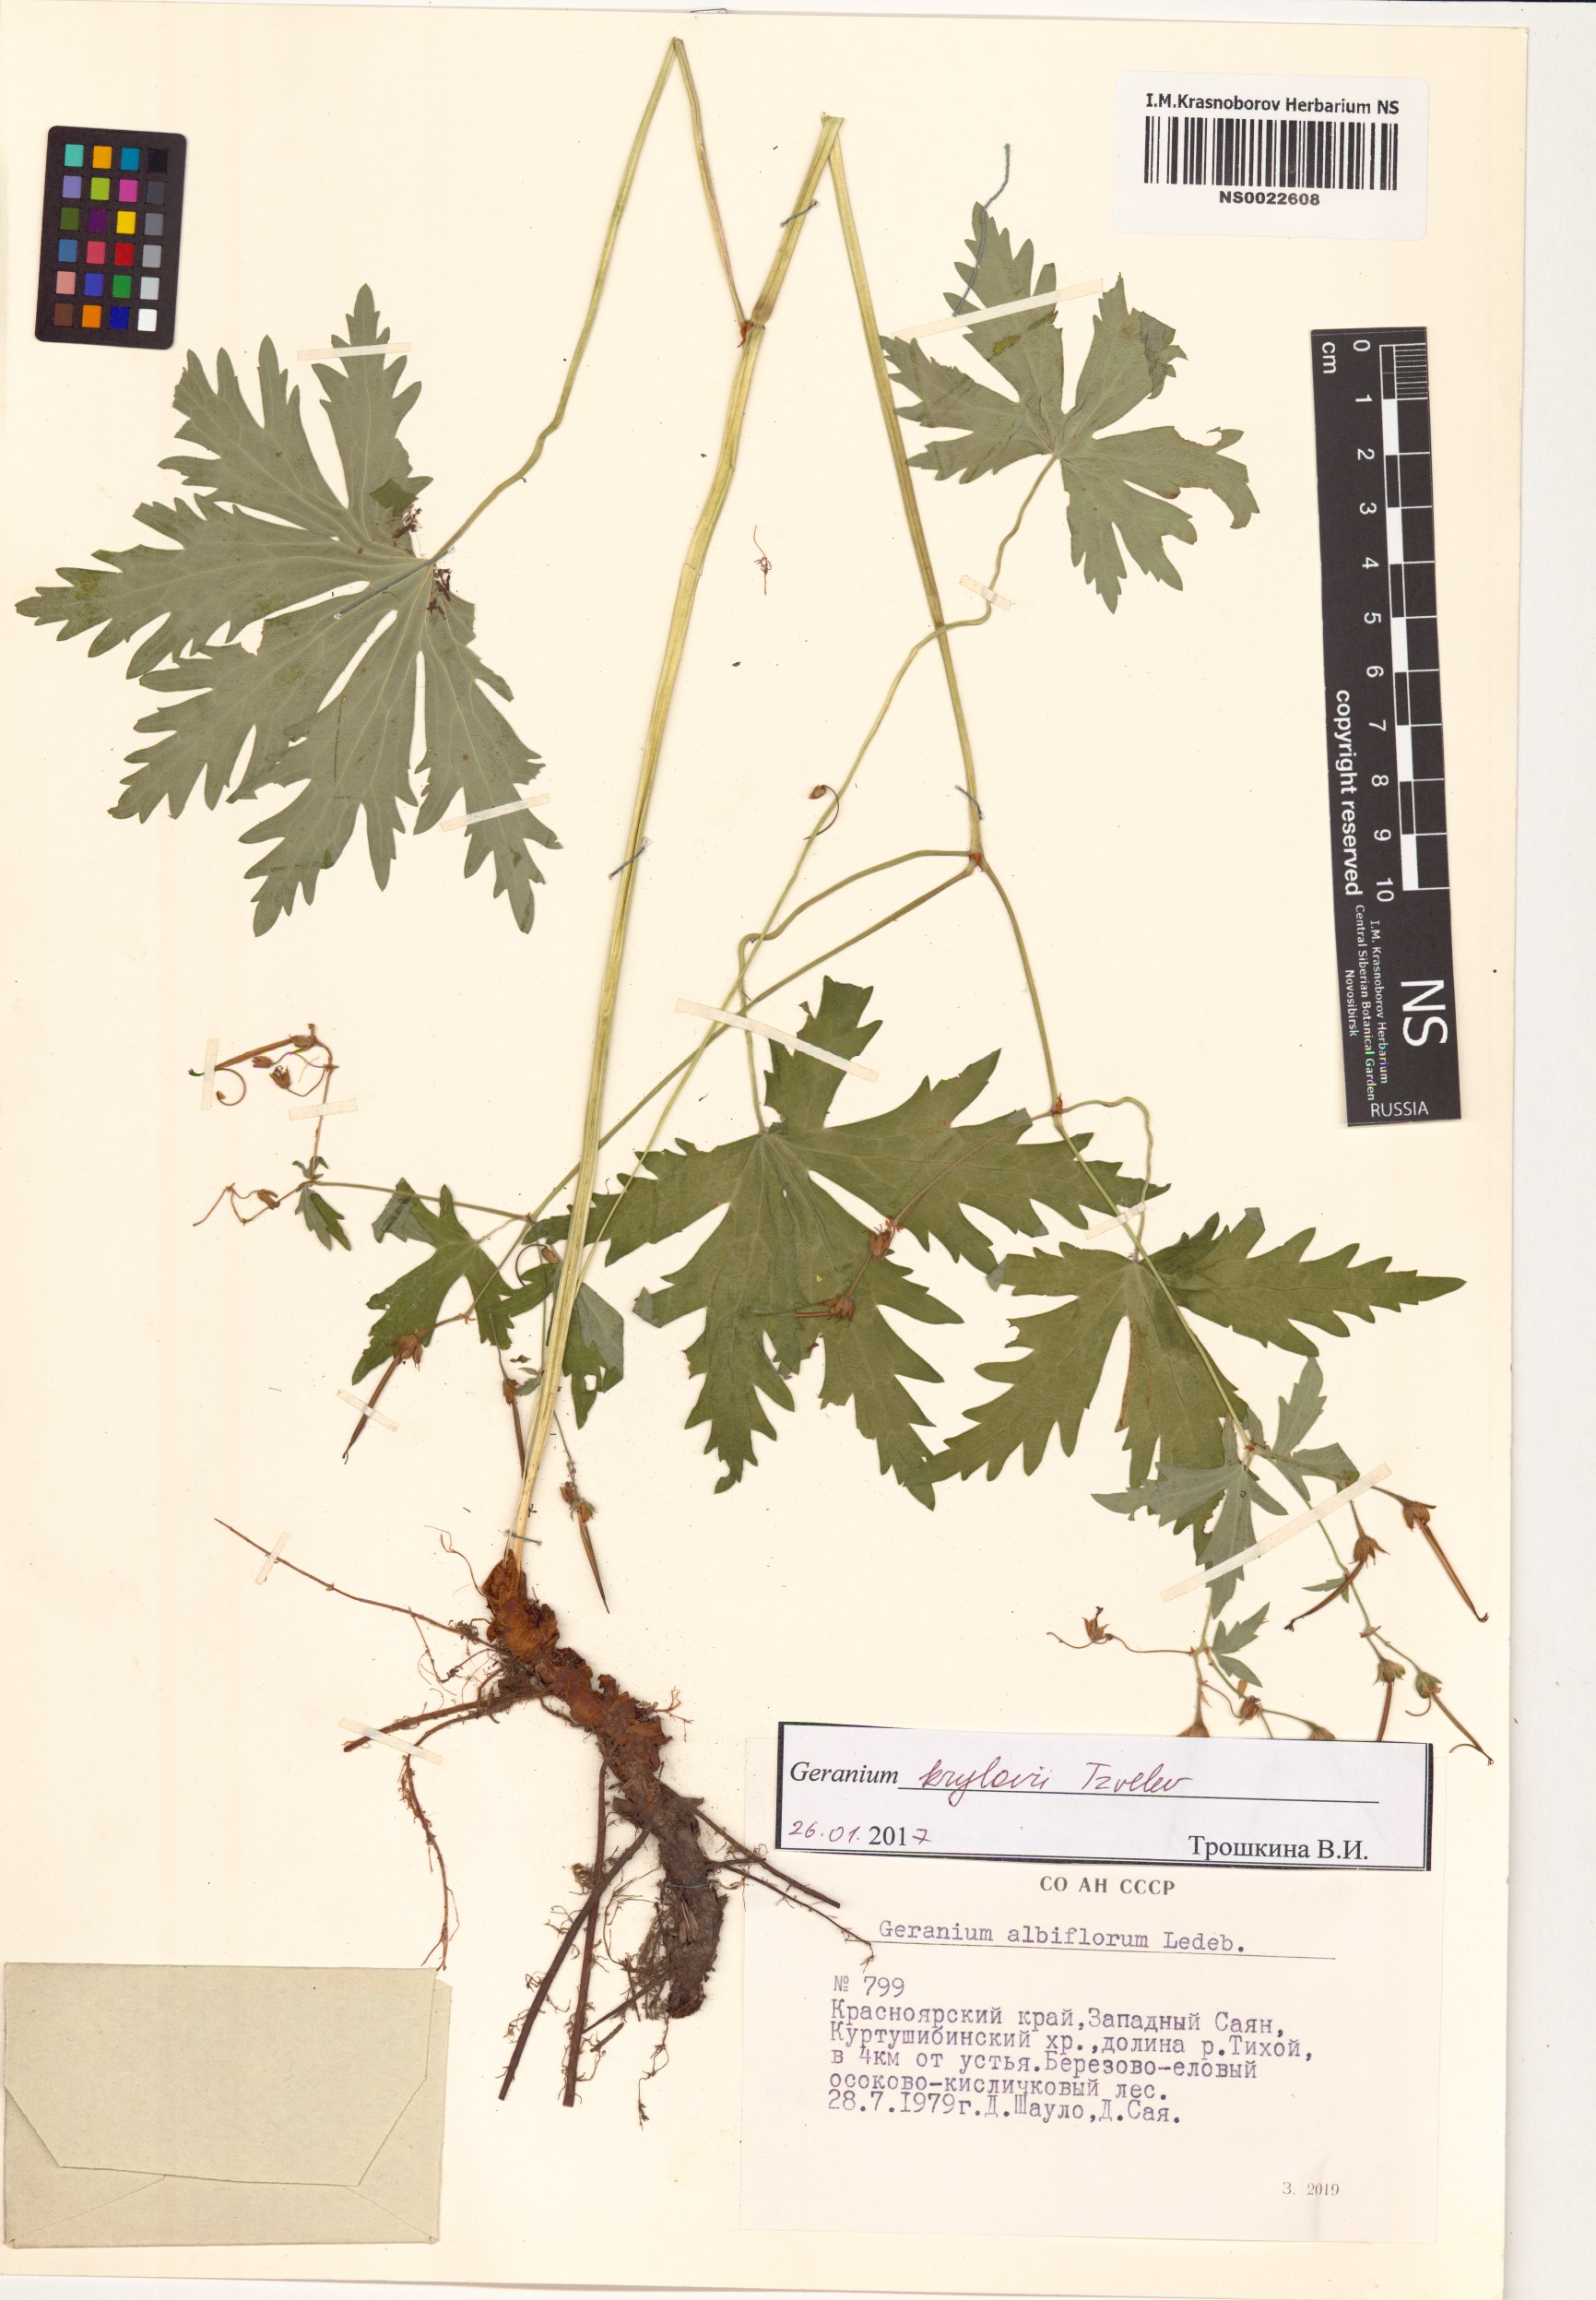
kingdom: Plantae
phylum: Tracheophyta
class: Magnoliopsida
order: Geraniales
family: Geraniaceae
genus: Geranium
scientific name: Geranium sylvaticum
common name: Wood crane's-bill
